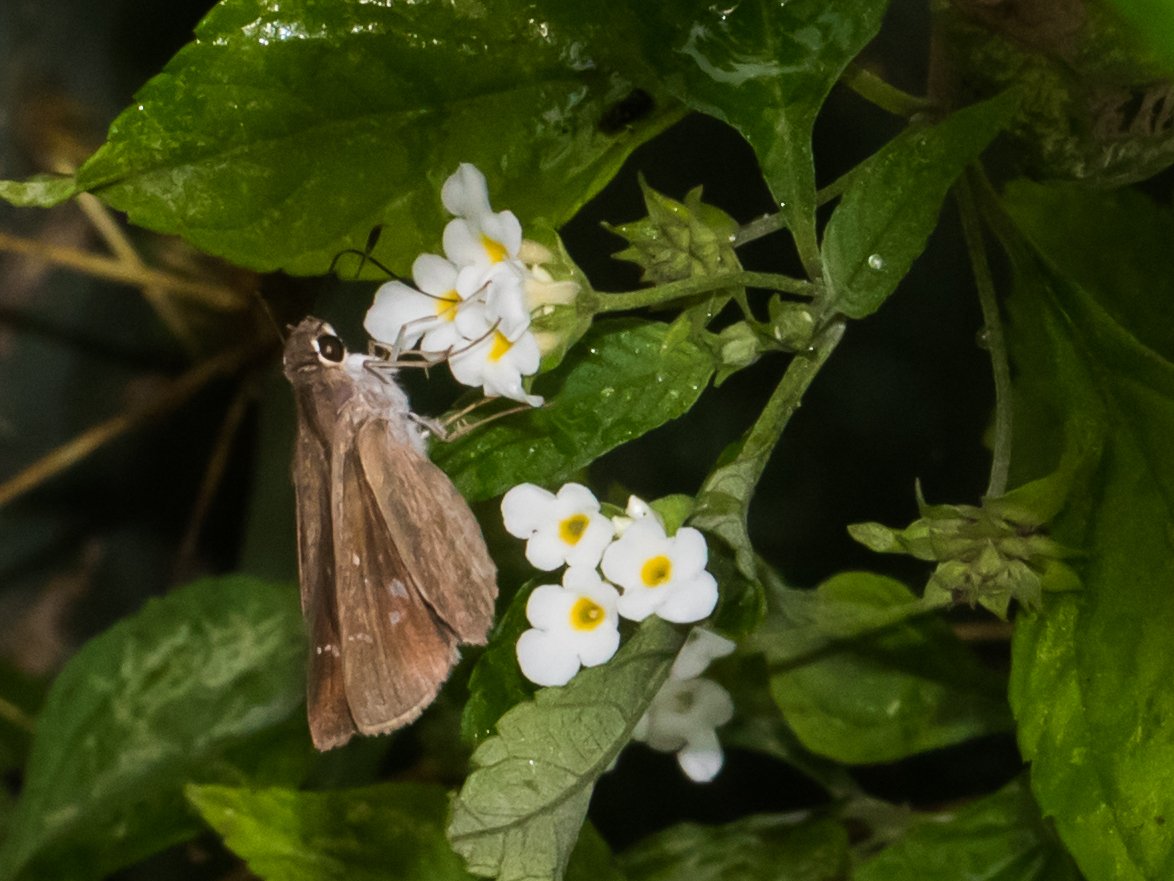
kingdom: Animalia
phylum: Arthropoda
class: Insecta
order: Lepidoptera
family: Hesperiidae
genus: Lerodea
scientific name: Lerodea eufala
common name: Eufala Skipper
